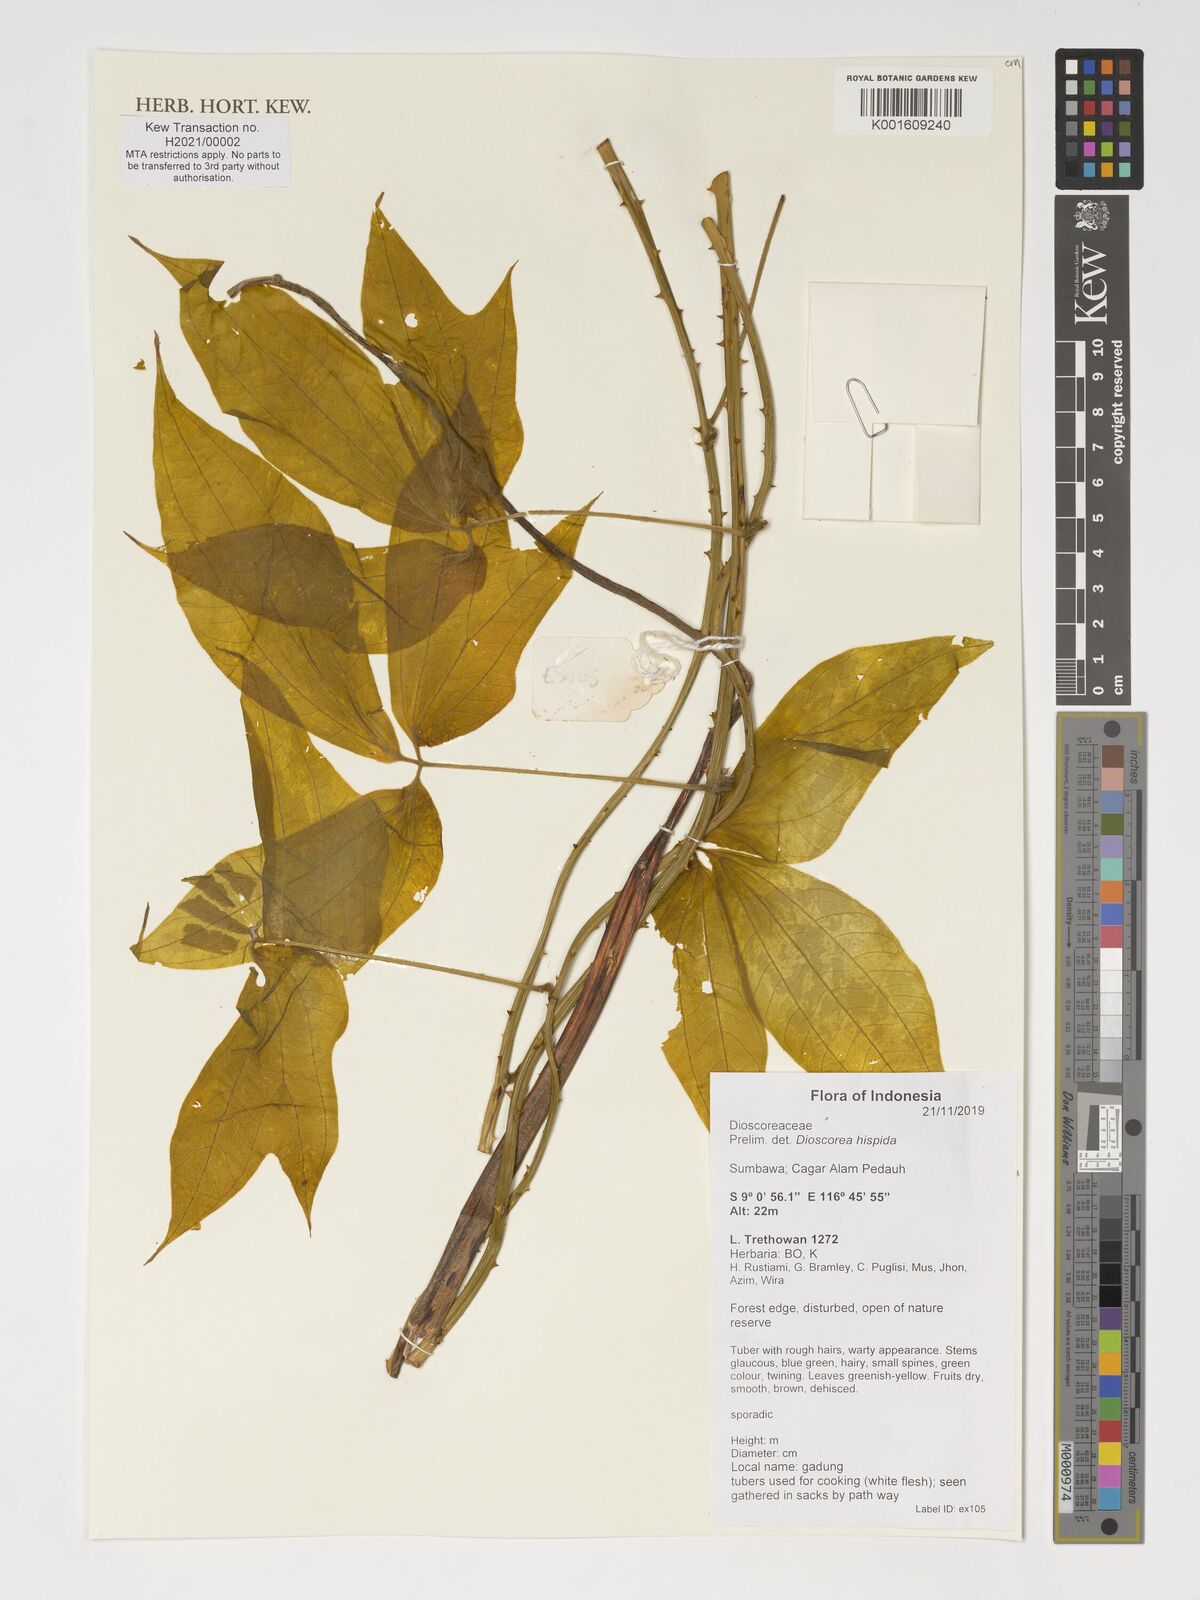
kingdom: Plantae
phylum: Tracheophyta
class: Liliopsida
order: Dioscoreales
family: Dioscoreaceae
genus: Dioscorea
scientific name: Dioscorea hispida
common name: Asiatic bitter yam
